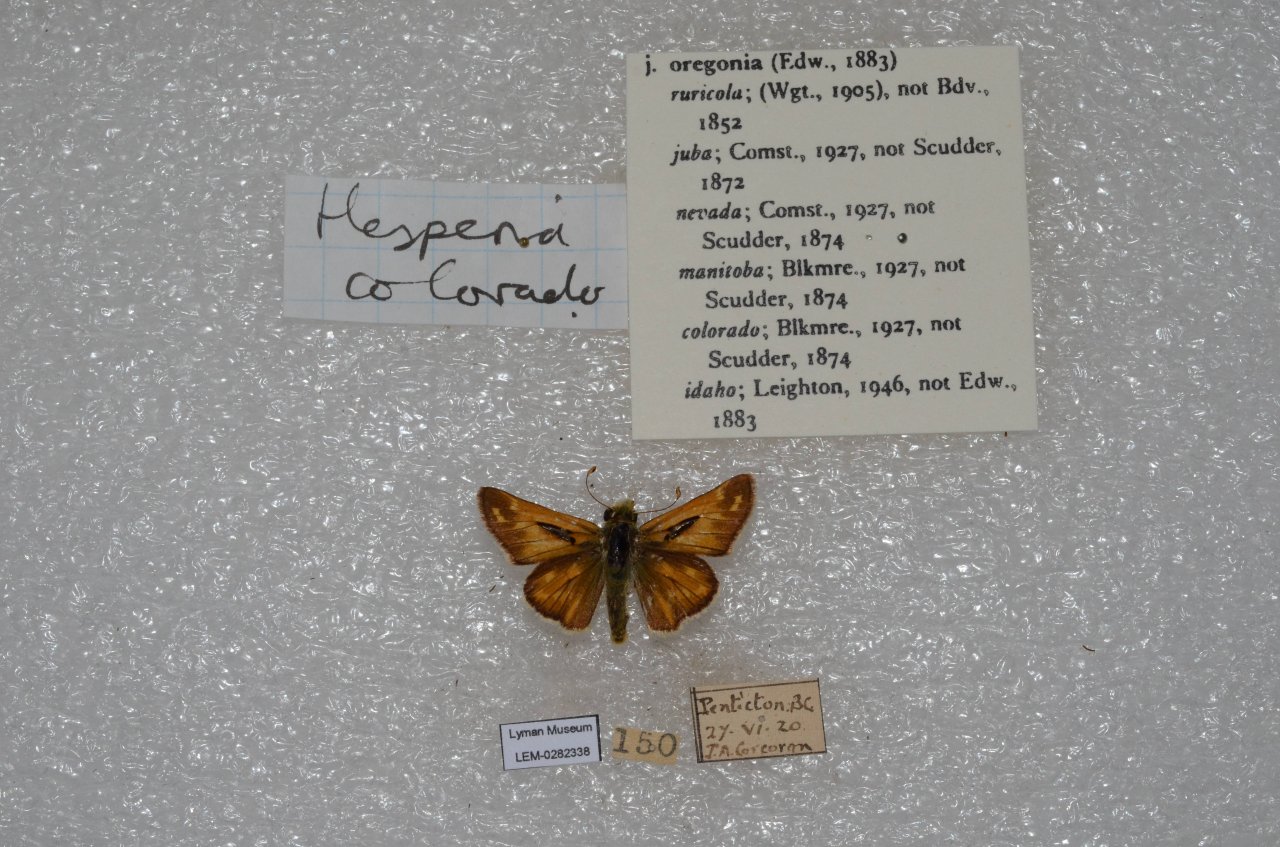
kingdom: Animalia
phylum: Arthropoda
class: Insecta
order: Lepidoptera
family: Hesperiidae
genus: Hesperia
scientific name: Hesperia comma
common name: Western Branded Skipper
